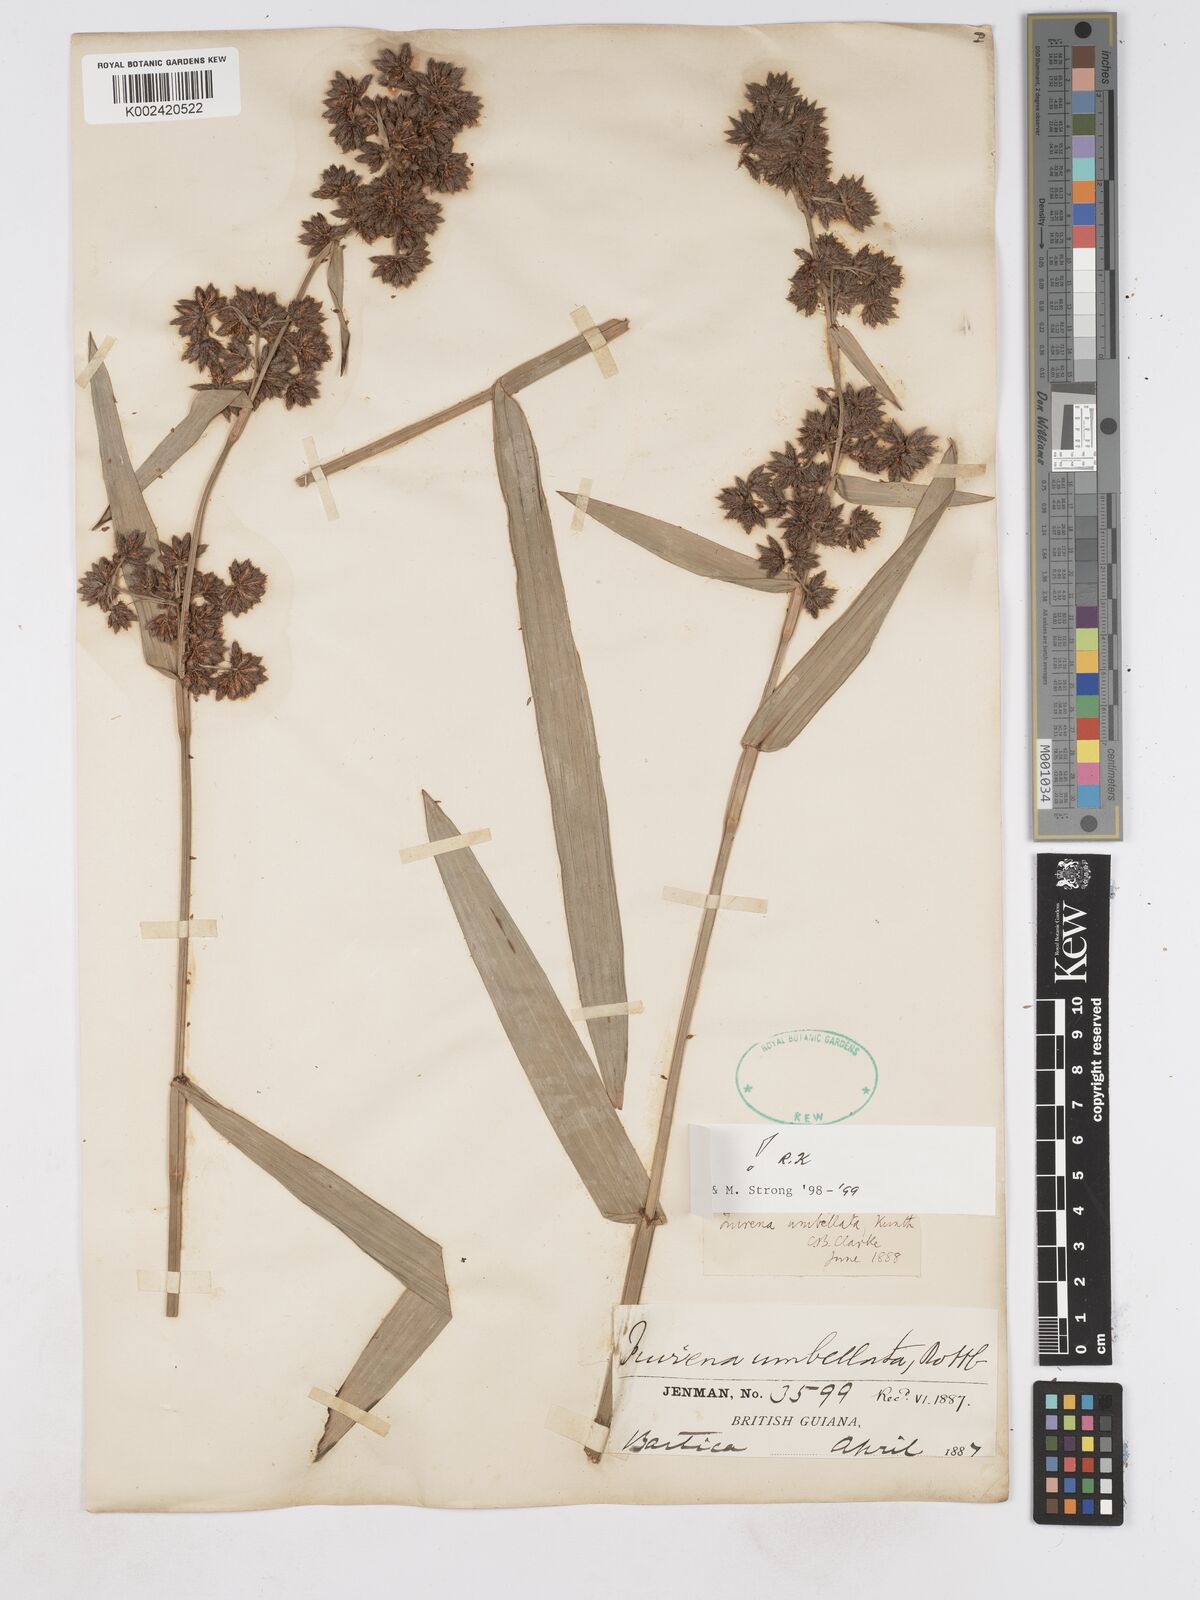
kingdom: Plantae
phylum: Tracheophyta
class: Liliopsida
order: Poales
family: Cyperaceae
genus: Fuirena
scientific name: Fuirena umbellata
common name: Yefen
